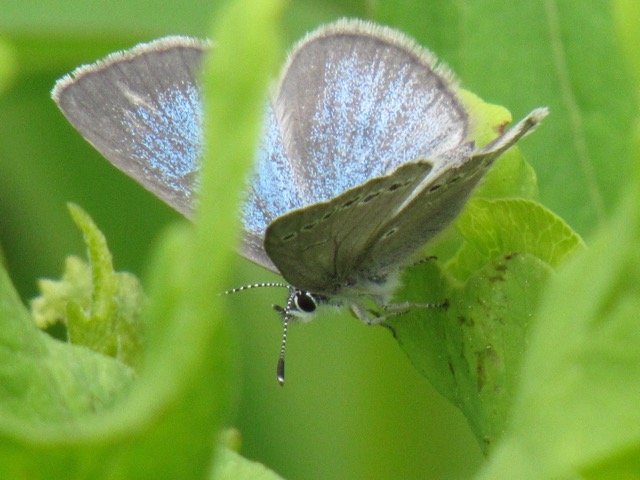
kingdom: Animalia
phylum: Arthropoda
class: Insecta
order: Lepidoptera
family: Lycaenidae
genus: Glaucopsyche
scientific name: Glaucopsyche lygdamus
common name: Silvery Blue
